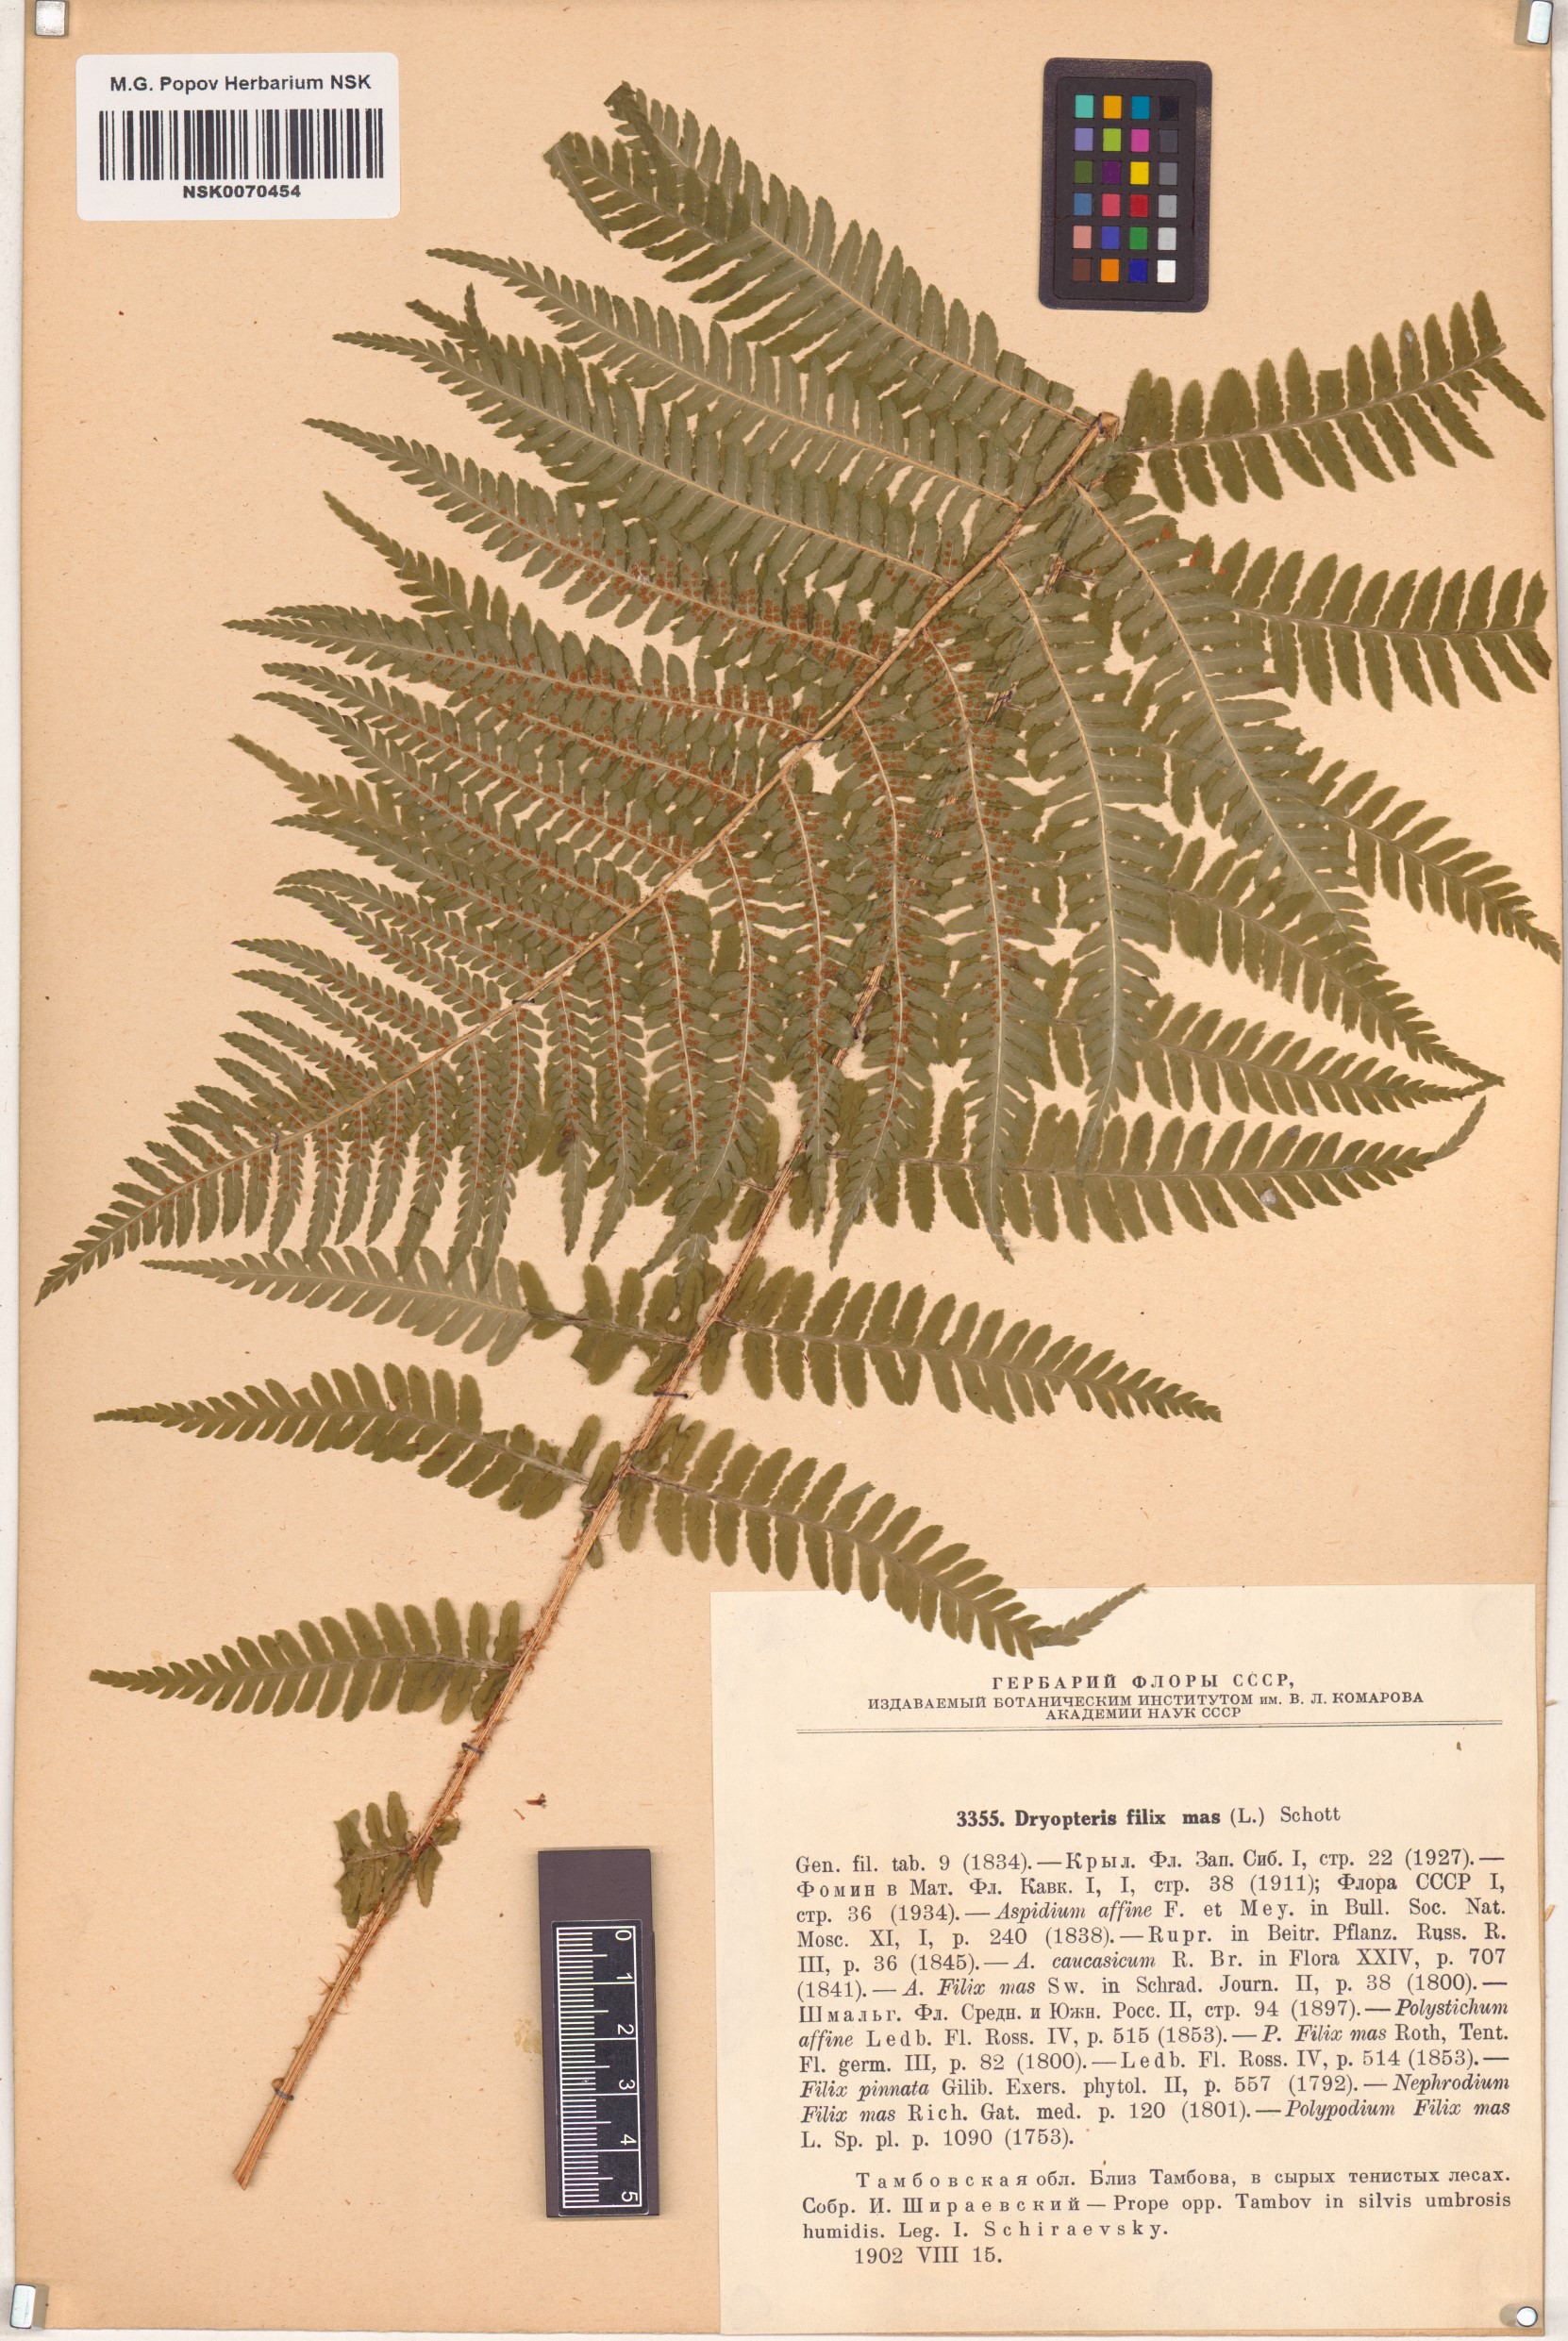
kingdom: Plantae
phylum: Tracheophyta
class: Polypodiopsida
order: Polypodiales
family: Dryopteridaceae
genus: Dryopteris
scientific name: Dryopteris filix-mas
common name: Male fern
